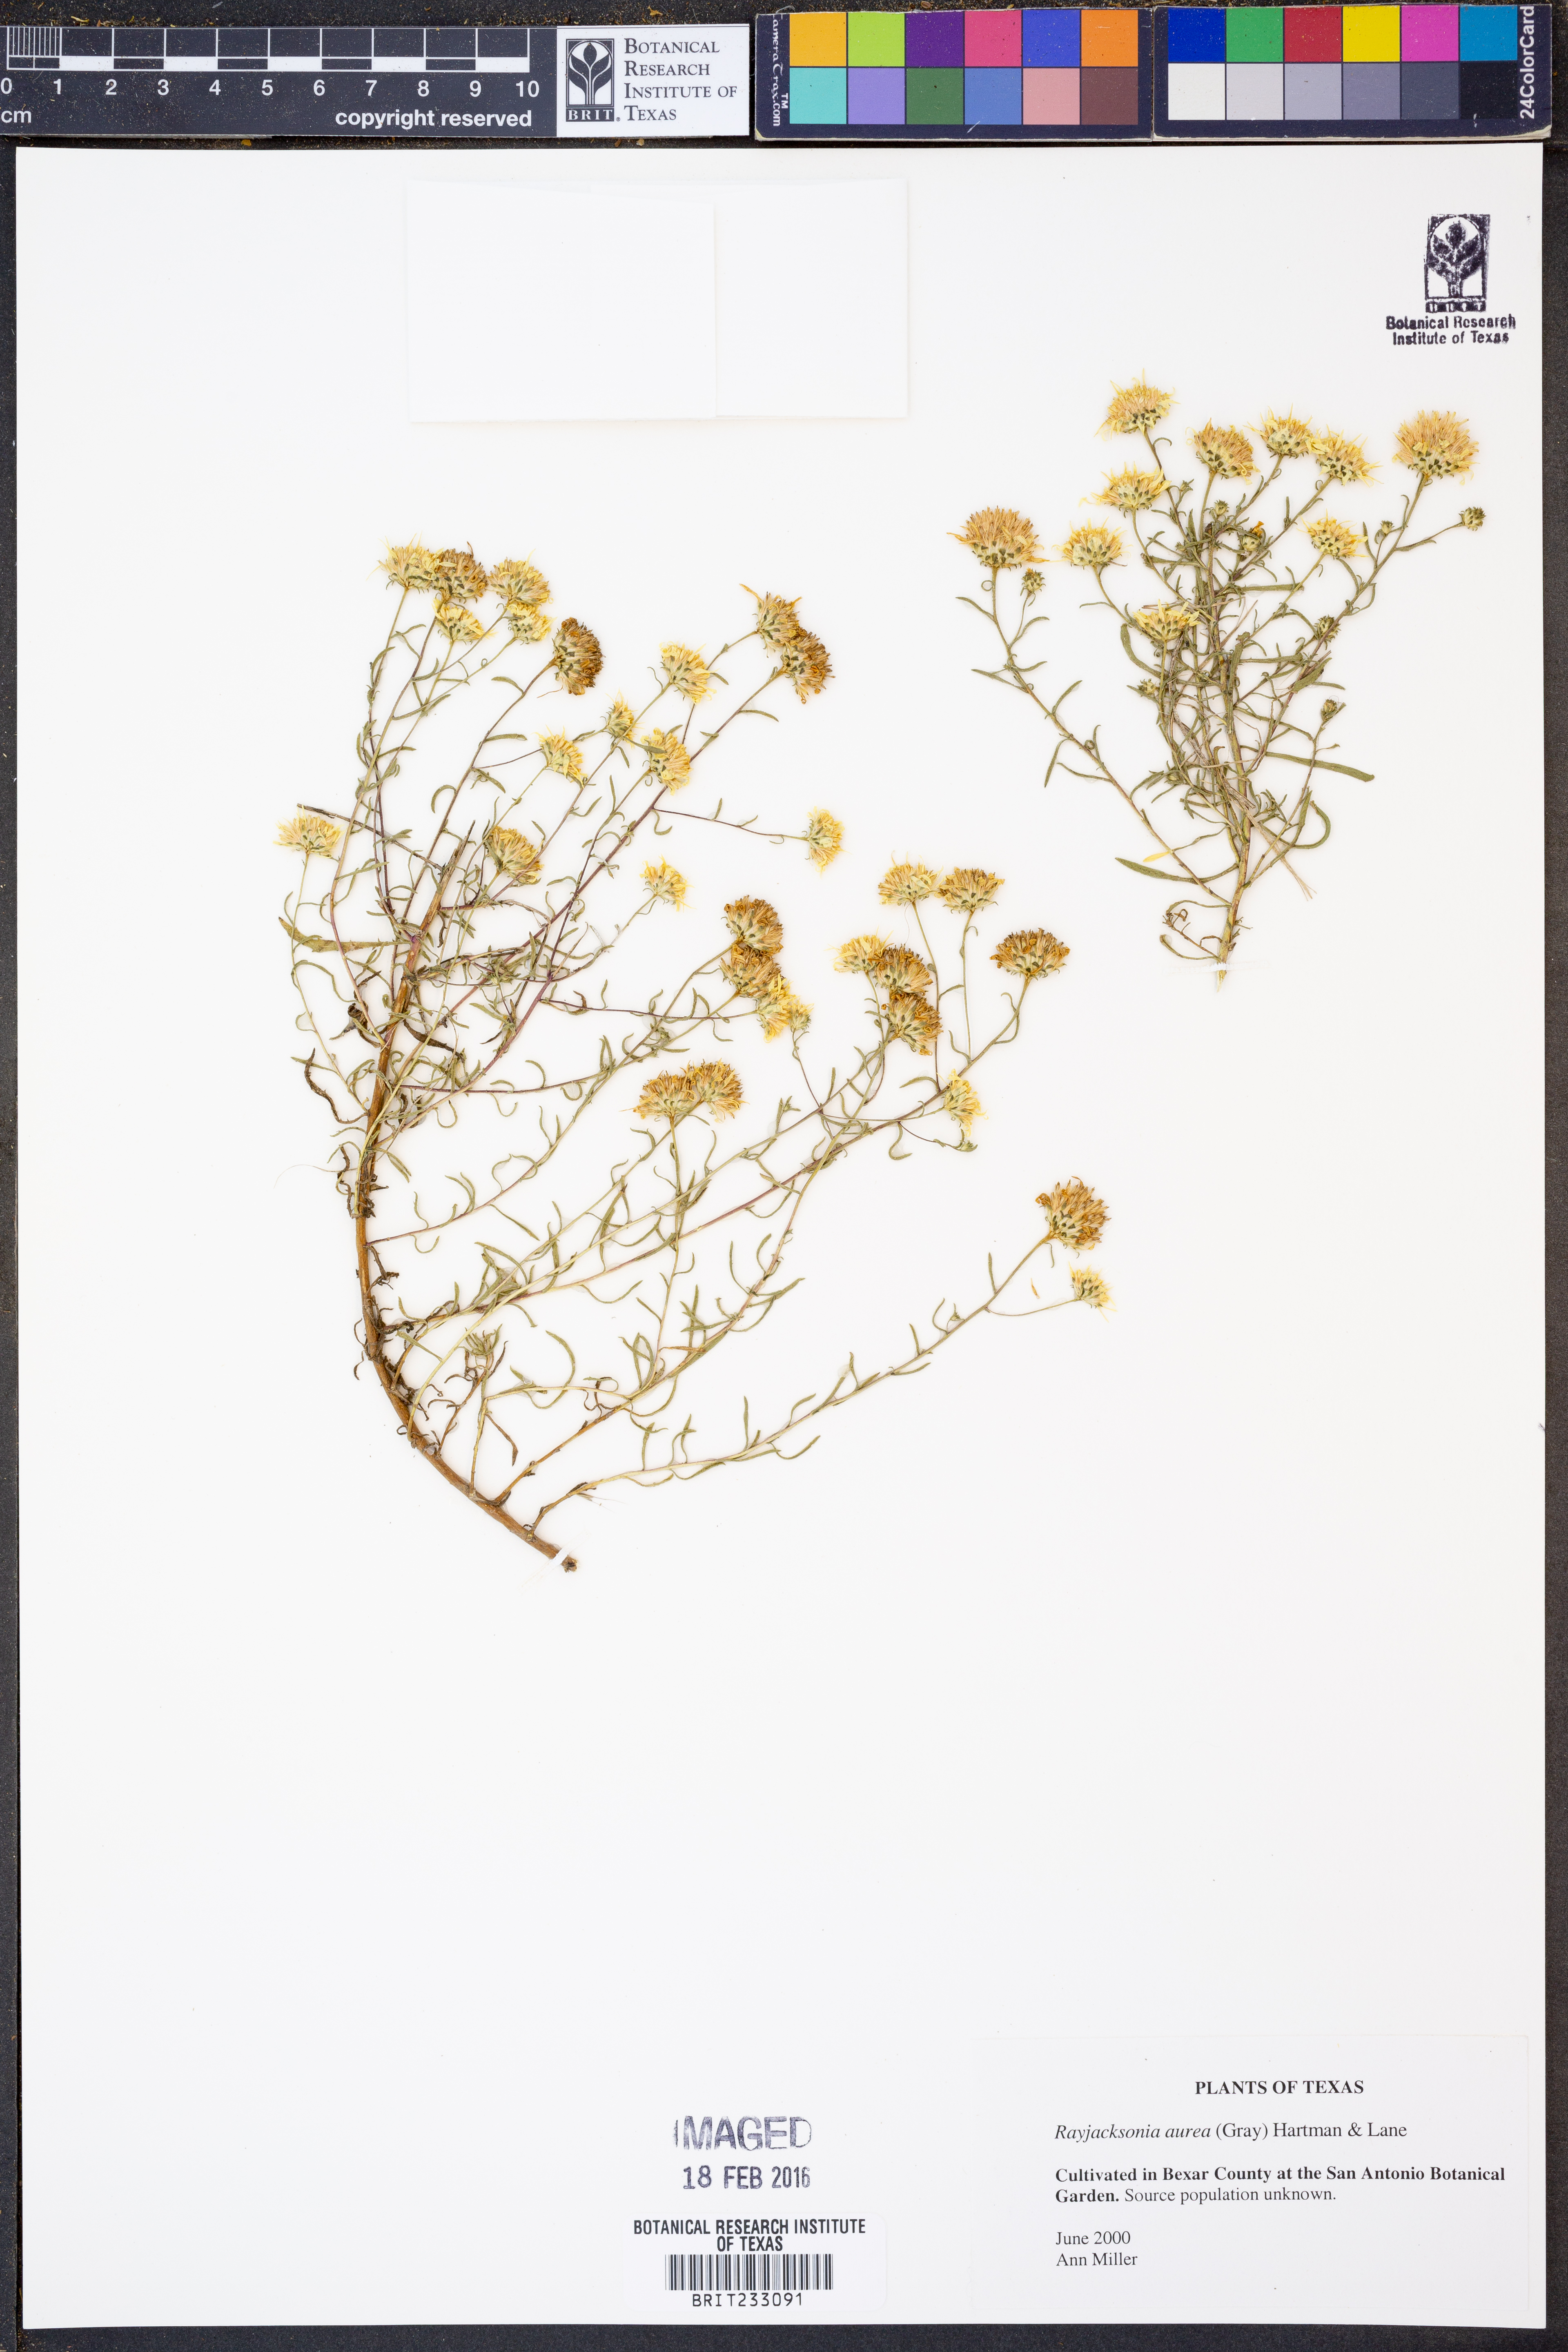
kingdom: Plantae
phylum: Tracheophyta
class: Magnoliopsida
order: Asterales
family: Asteraceae
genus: Rayjacksonia
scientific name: Rayjacksonia aurea
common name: Houston camphor daisy
